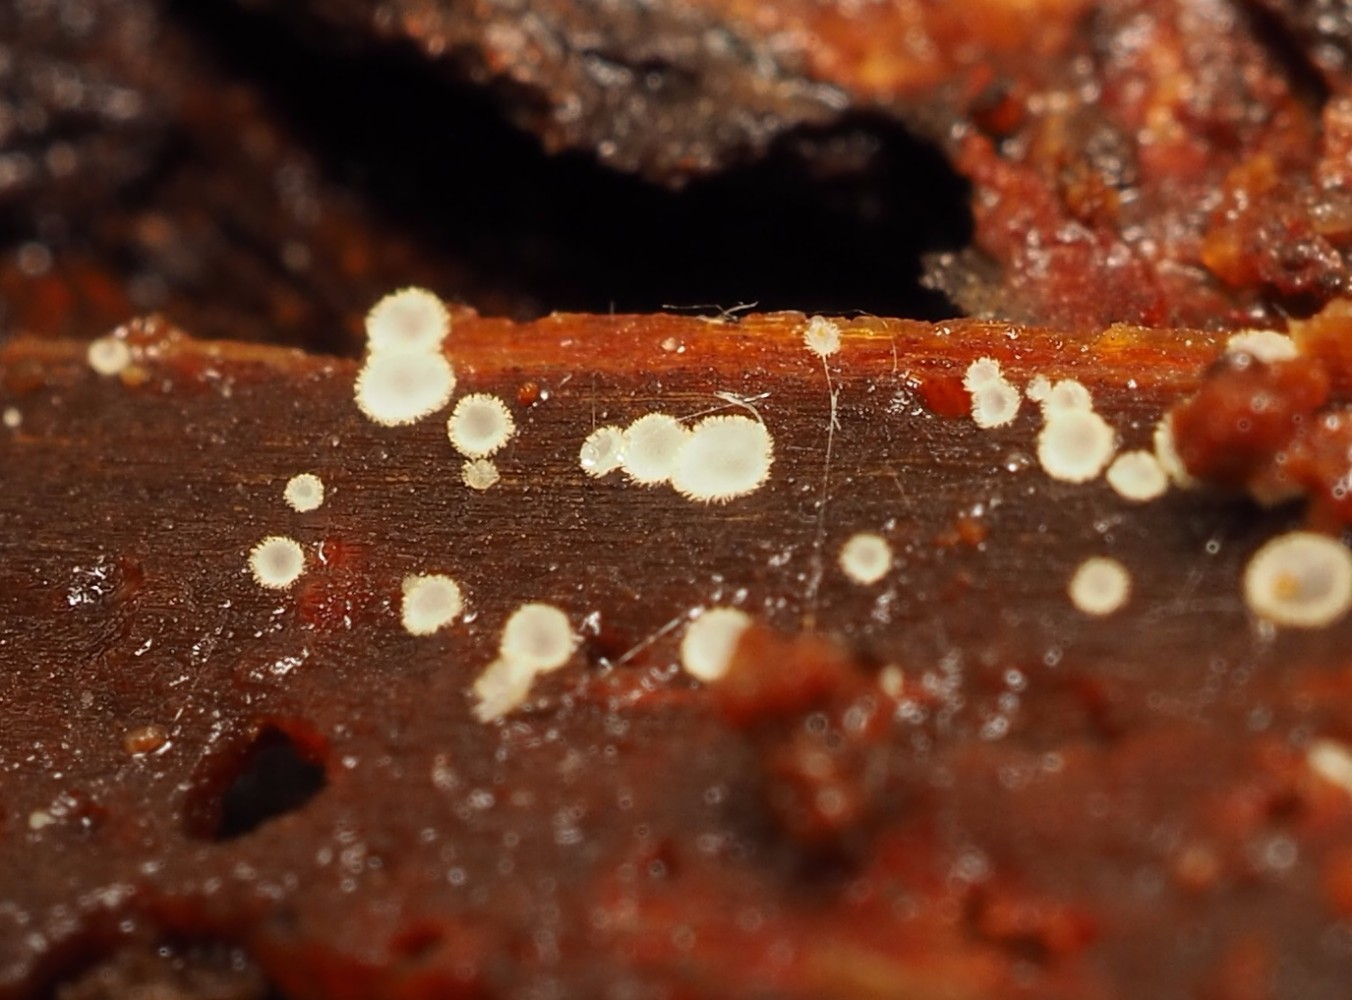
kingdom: Fungi
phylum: Ascomycota
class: Leotiomycetes
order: Helotiales
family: Hyaloscyphaceae
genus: Eupezizella
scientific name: Eupezizella aureliella
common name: almindelig klarskive
